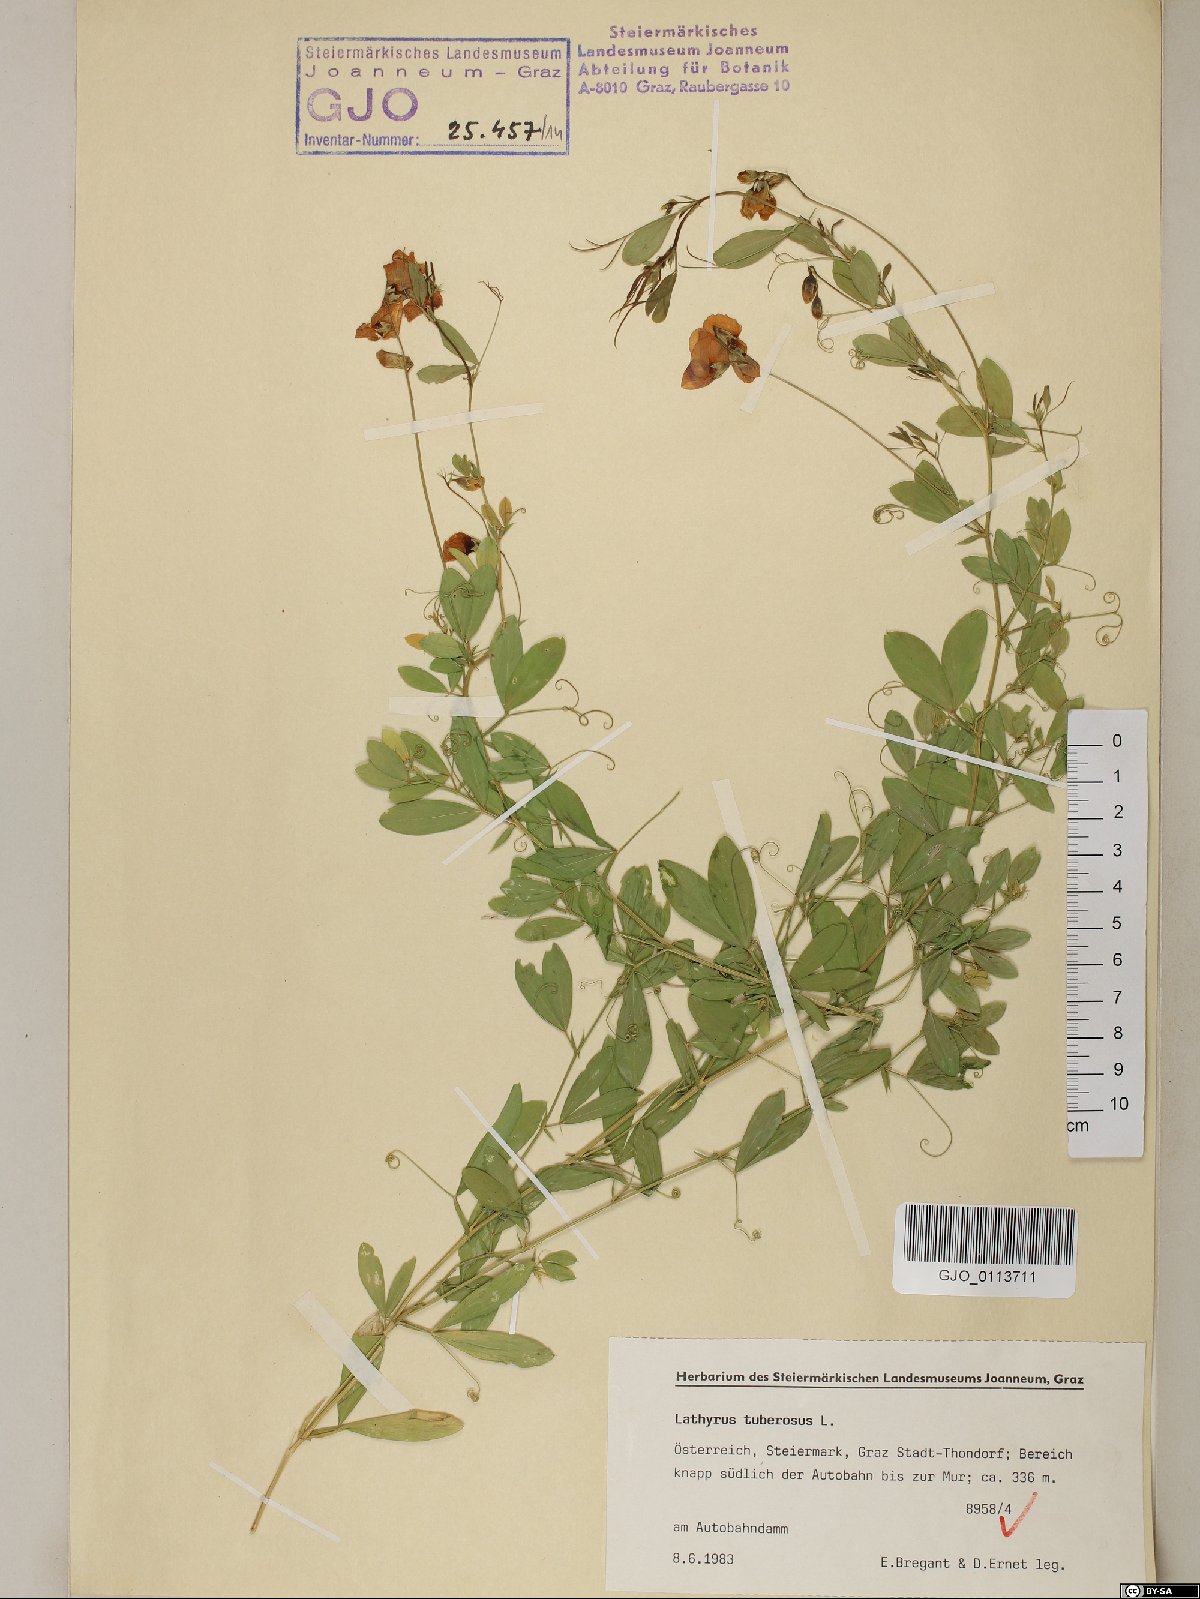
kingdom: Plantae
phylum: Tracheophyta
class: Magnoliopsida
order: Fabales
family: Fabaceae
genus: Lathyrus
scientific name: Lathyrus tuberosus
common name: Tuberous pea
